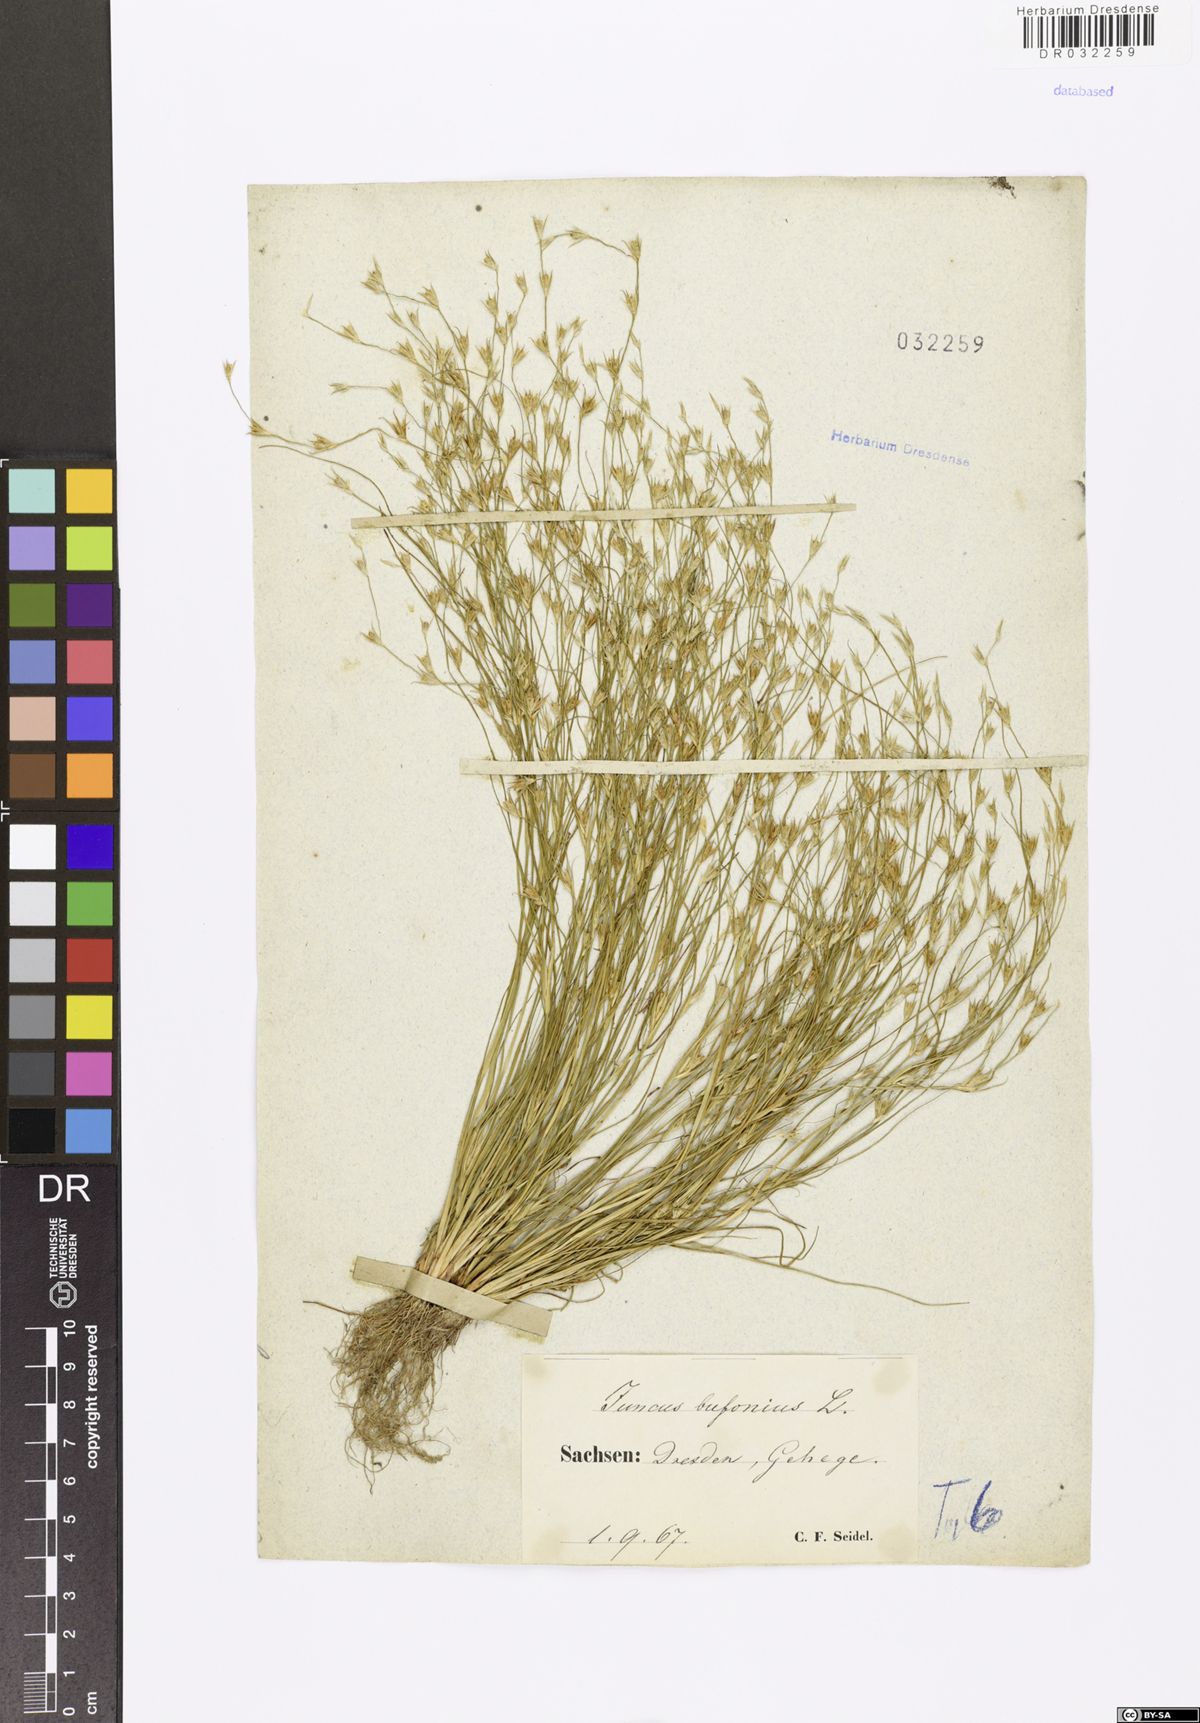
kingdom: Plantae
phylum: Tracheophyta
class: Liliopsida
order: Poales
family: Juncaceae
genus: Juncus
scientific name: Juncus bufonius
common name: Toad rush
